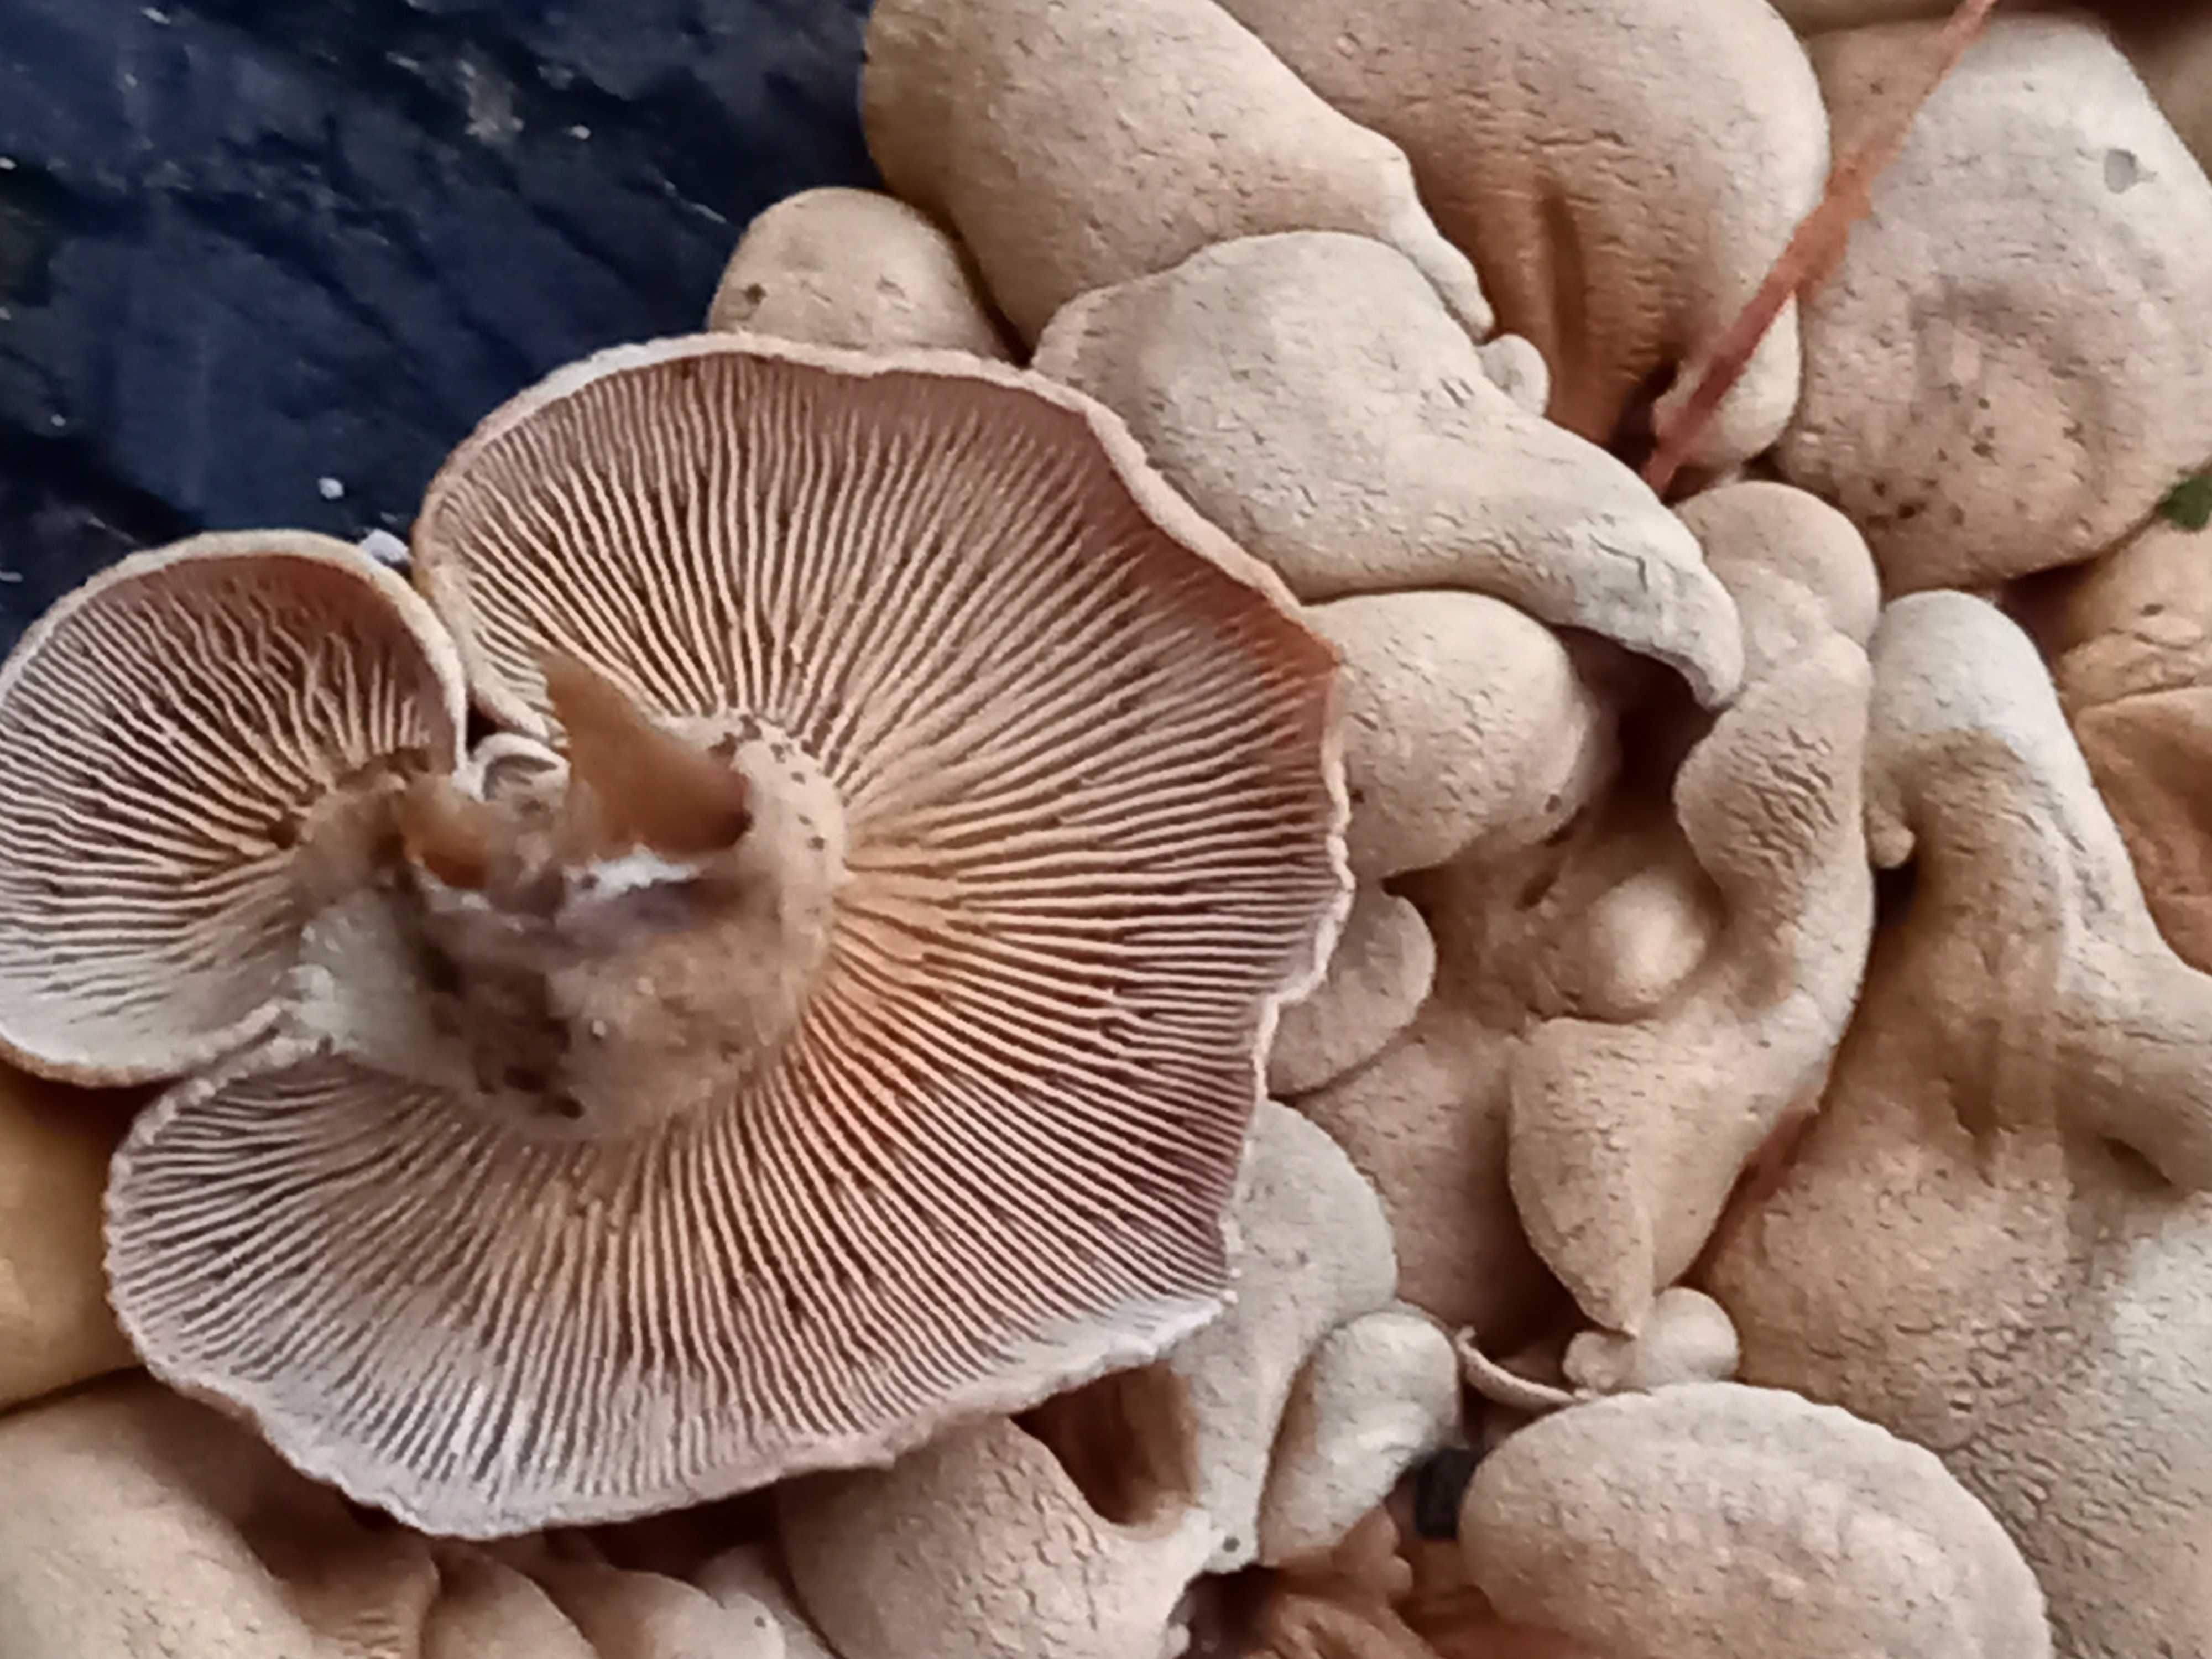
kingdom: Fungi
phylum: Basidiomycota
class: Agaricomycetes
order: Agaricales
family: Mycenaceae
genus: Panellus
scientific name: Panellus stipticus
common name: kliddet epaulethat
